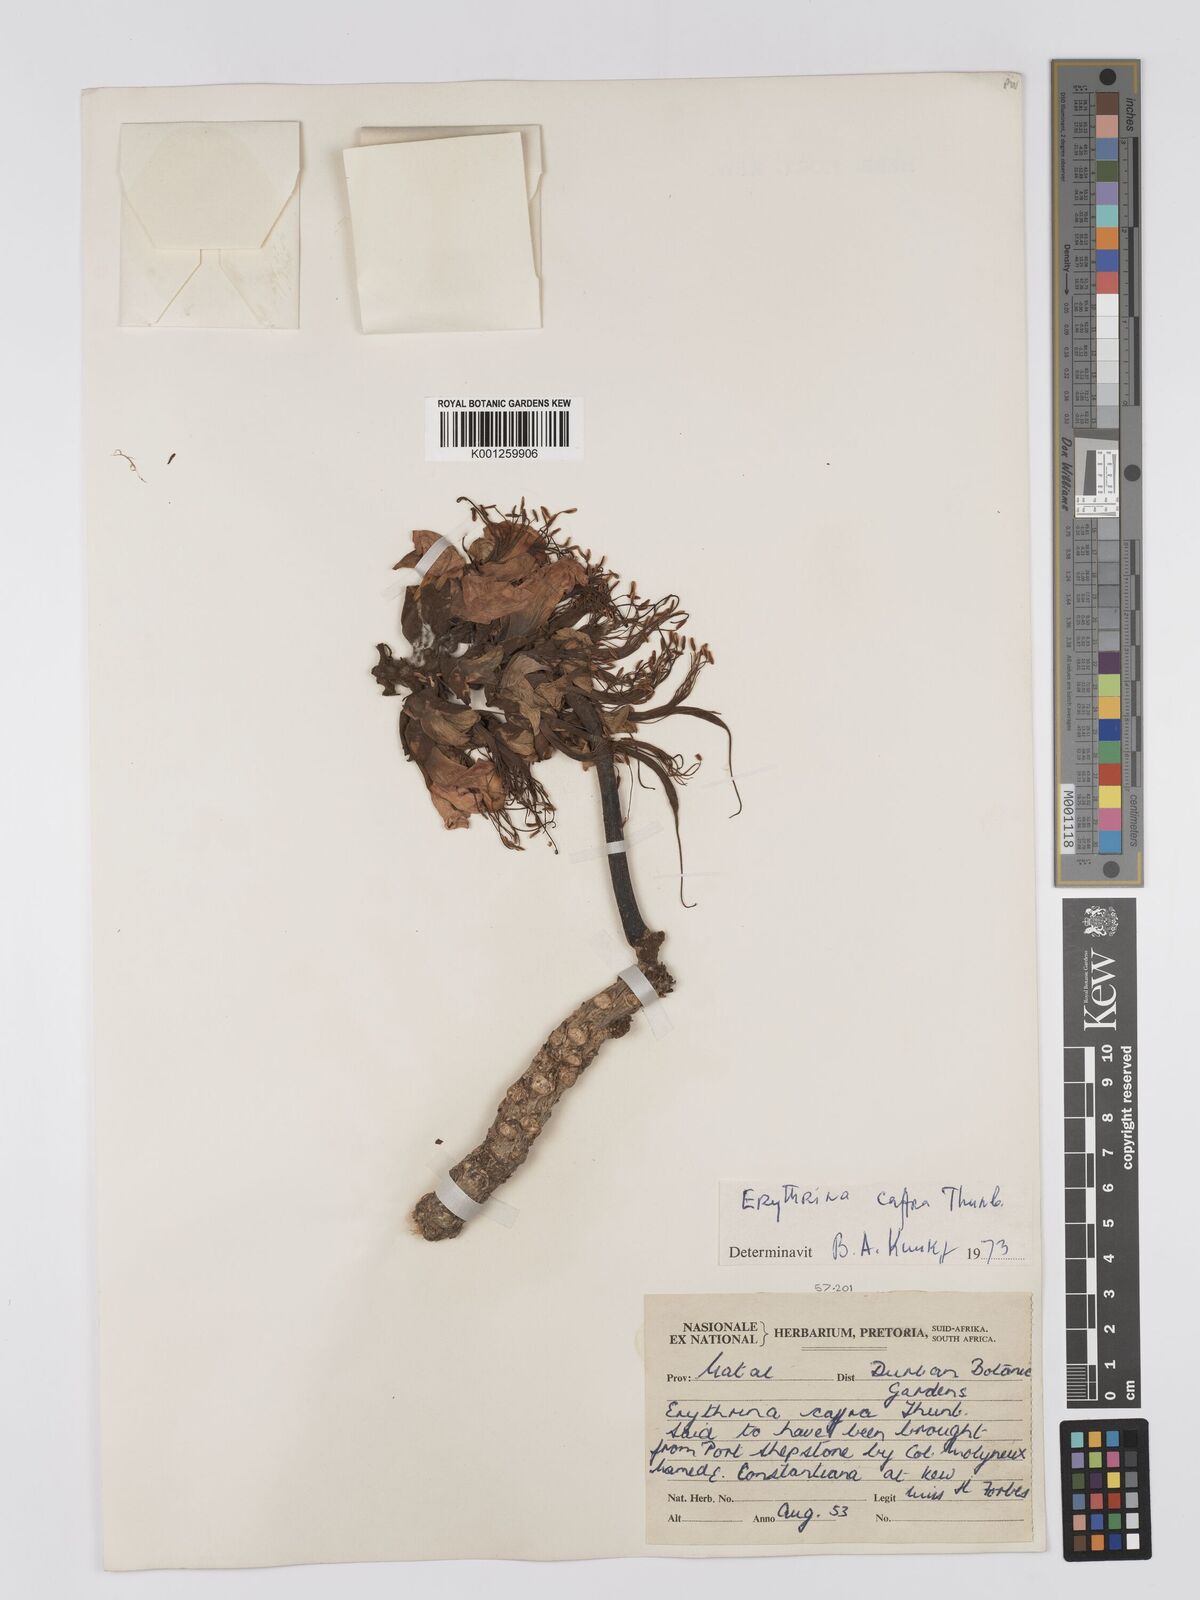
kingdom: Plantae
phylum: Tracheophyta
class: Magnoliopsida
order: Fabales
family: Fabaceae
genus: Erythrina
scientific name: Erythrina caffra
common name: Coast coral tree
